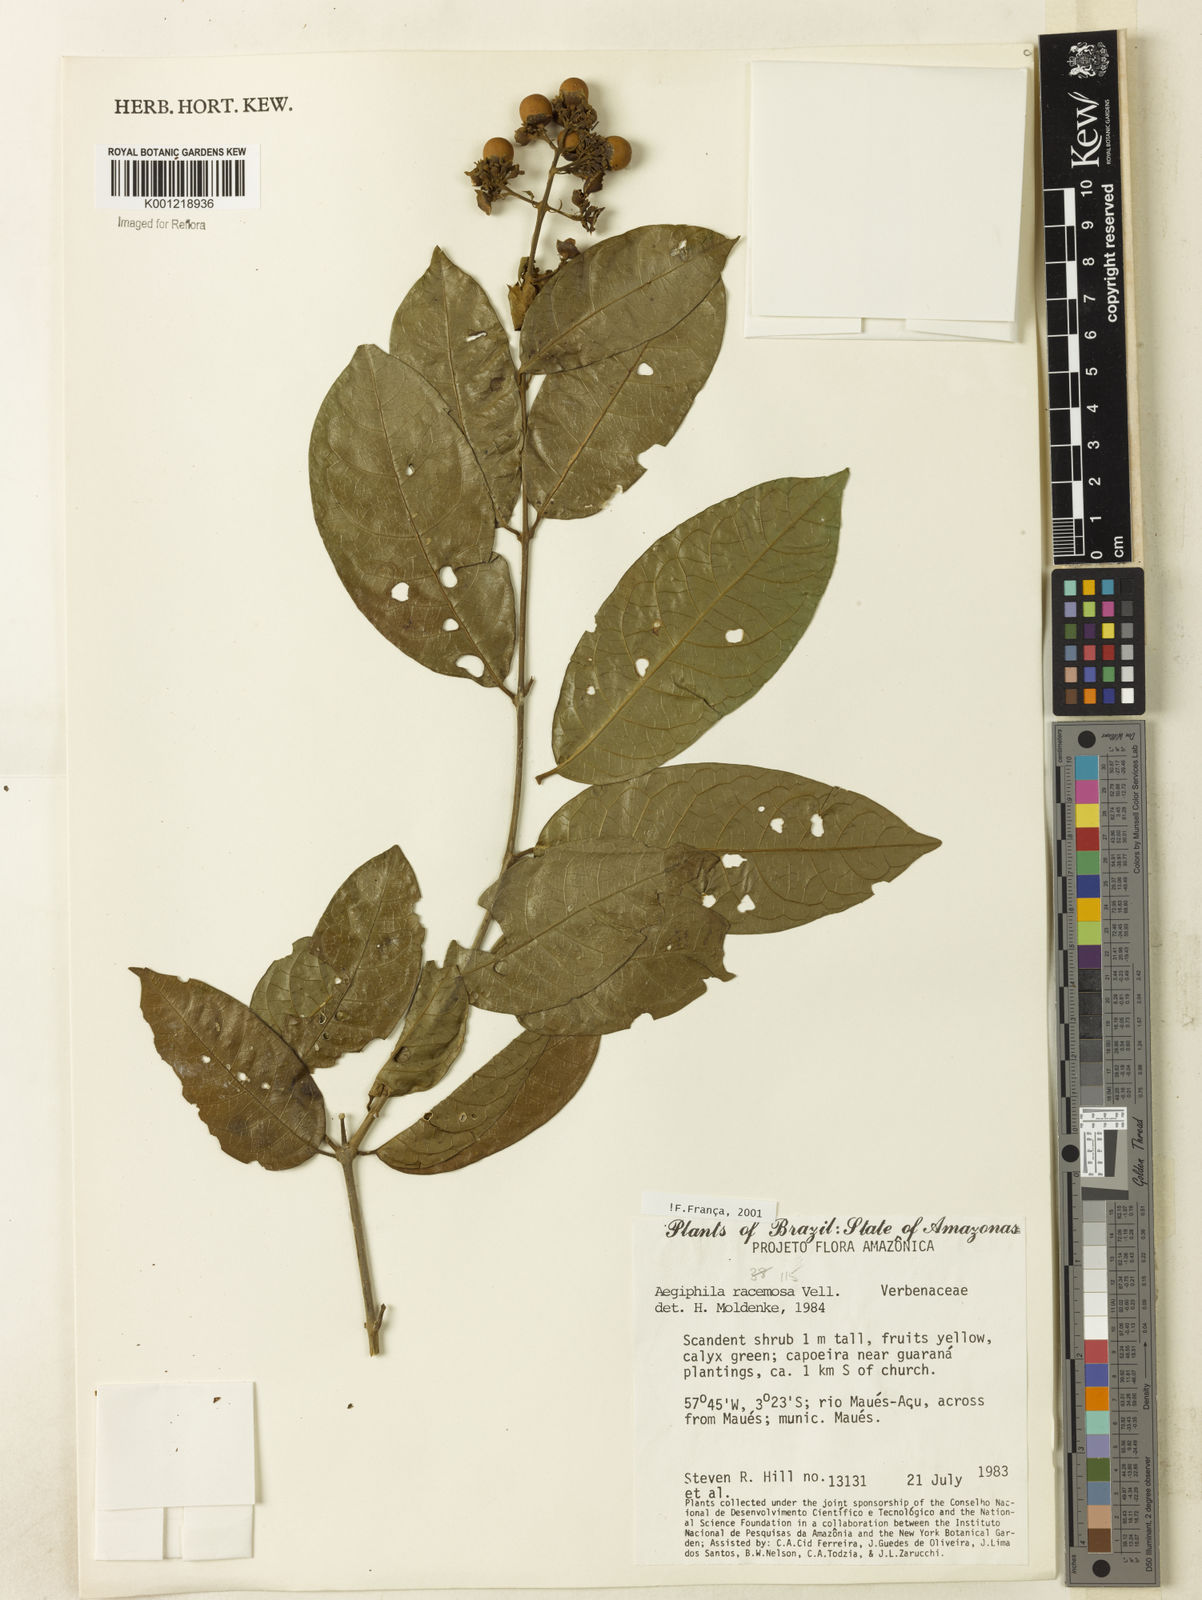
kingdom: Plantae
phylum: Tracheophyta
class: Magnoliopsida
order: Lamiales
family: Lamiaceae
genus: Aegiphila
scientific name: Aegiphila racemosa
